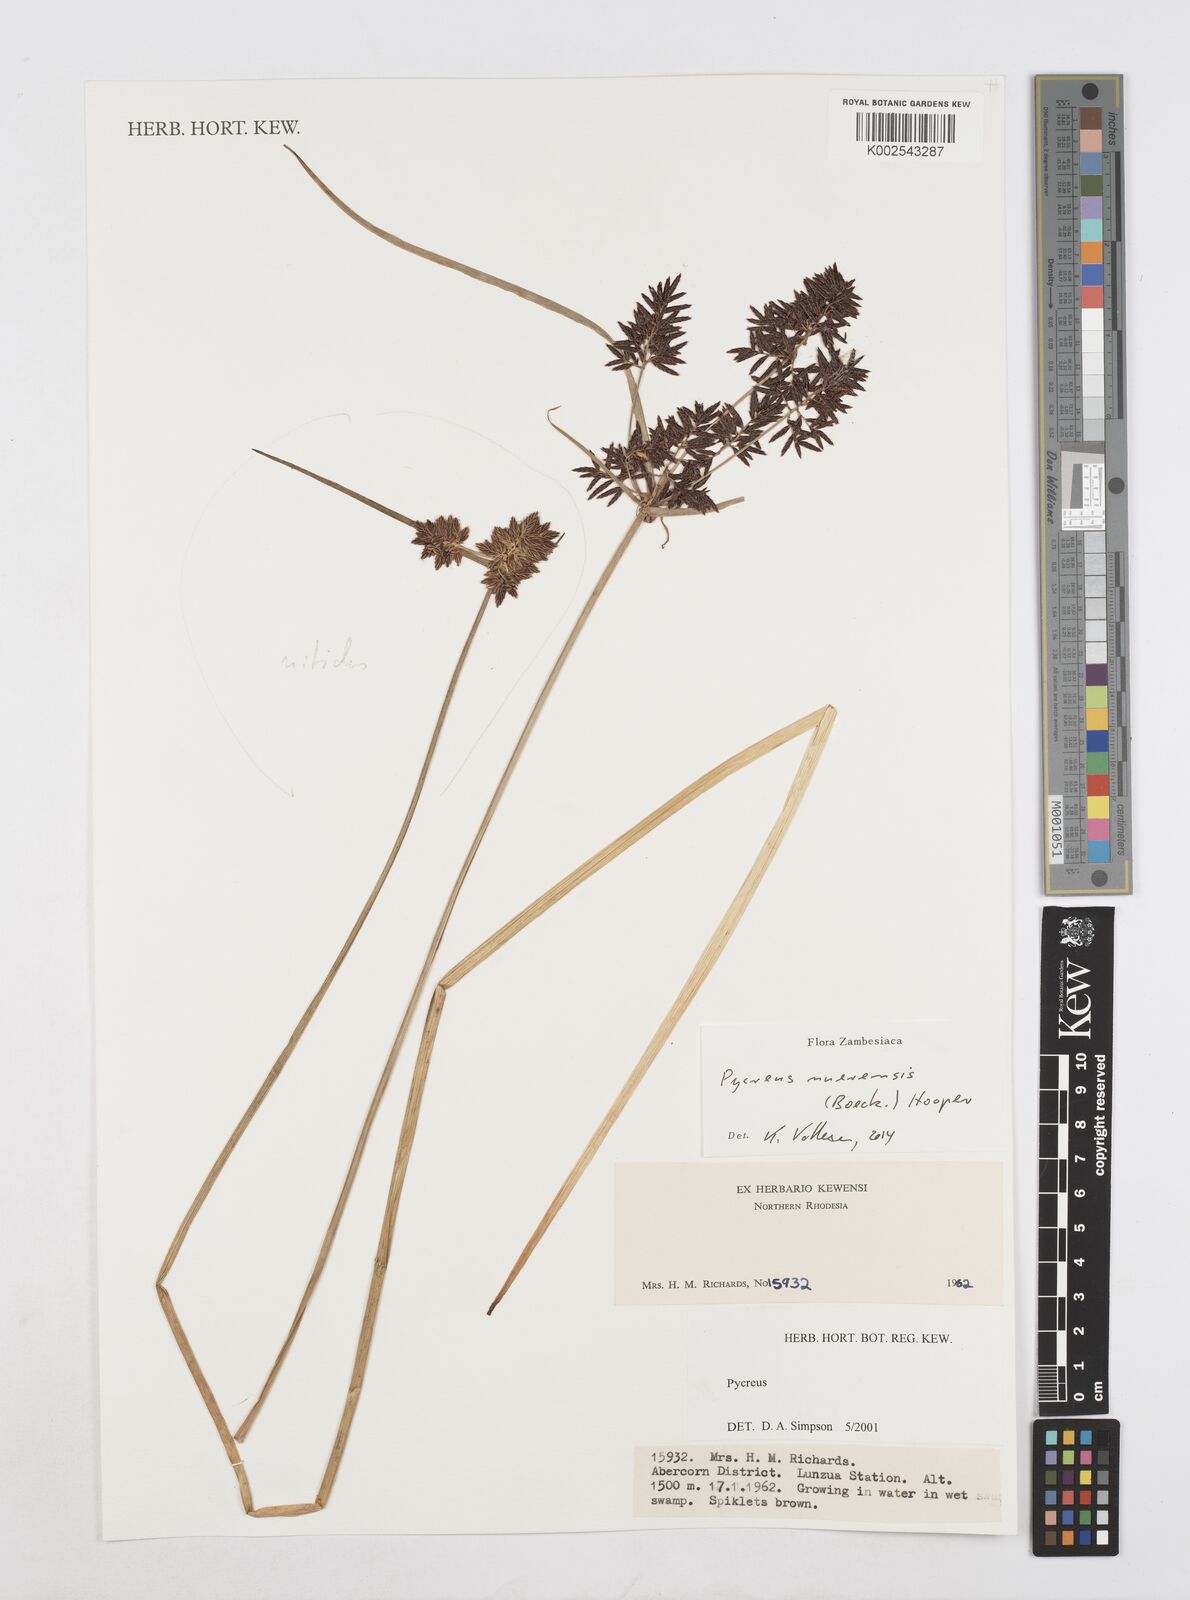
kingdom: Plantae
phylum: Tracheophyta
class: Liliopsida
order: Poales
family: Cyperaceae
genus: Cyperus
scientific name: Cyperus nuerensis
